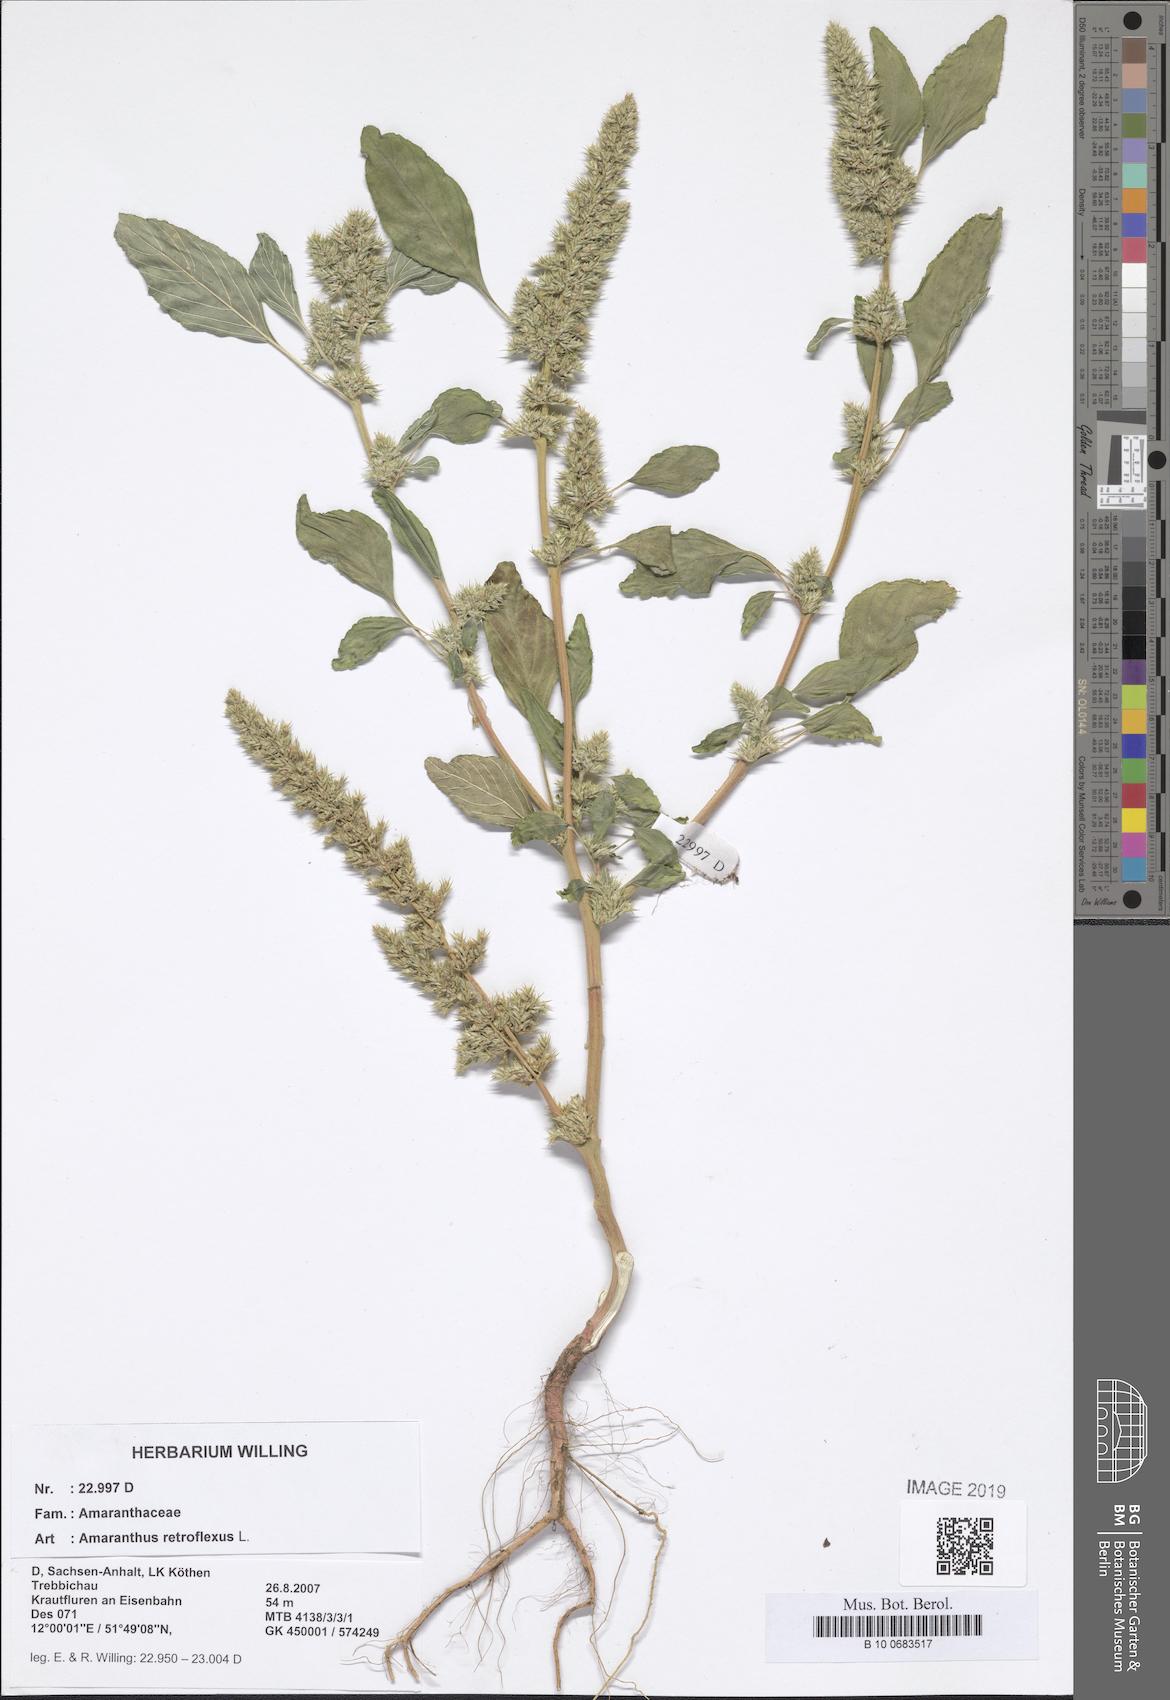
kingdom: Plantae
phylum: Tracheophyta
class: Magnoliopsida
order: Caryophyllales
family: Amaranthaceae
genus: Amaranthus
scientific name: Amaranthus retroflexus
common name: Redroot amaranth
